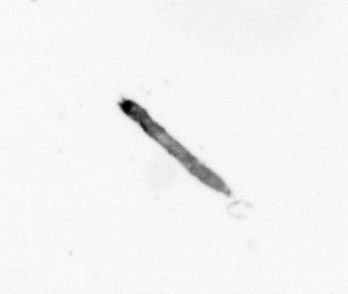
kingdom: Bacteria
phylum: Cyanobacteria
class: Cyanobacteriia
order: Cyanobacteriales
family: Microcoleaceae
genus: Trichodesmium
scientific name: Trichodesmium
